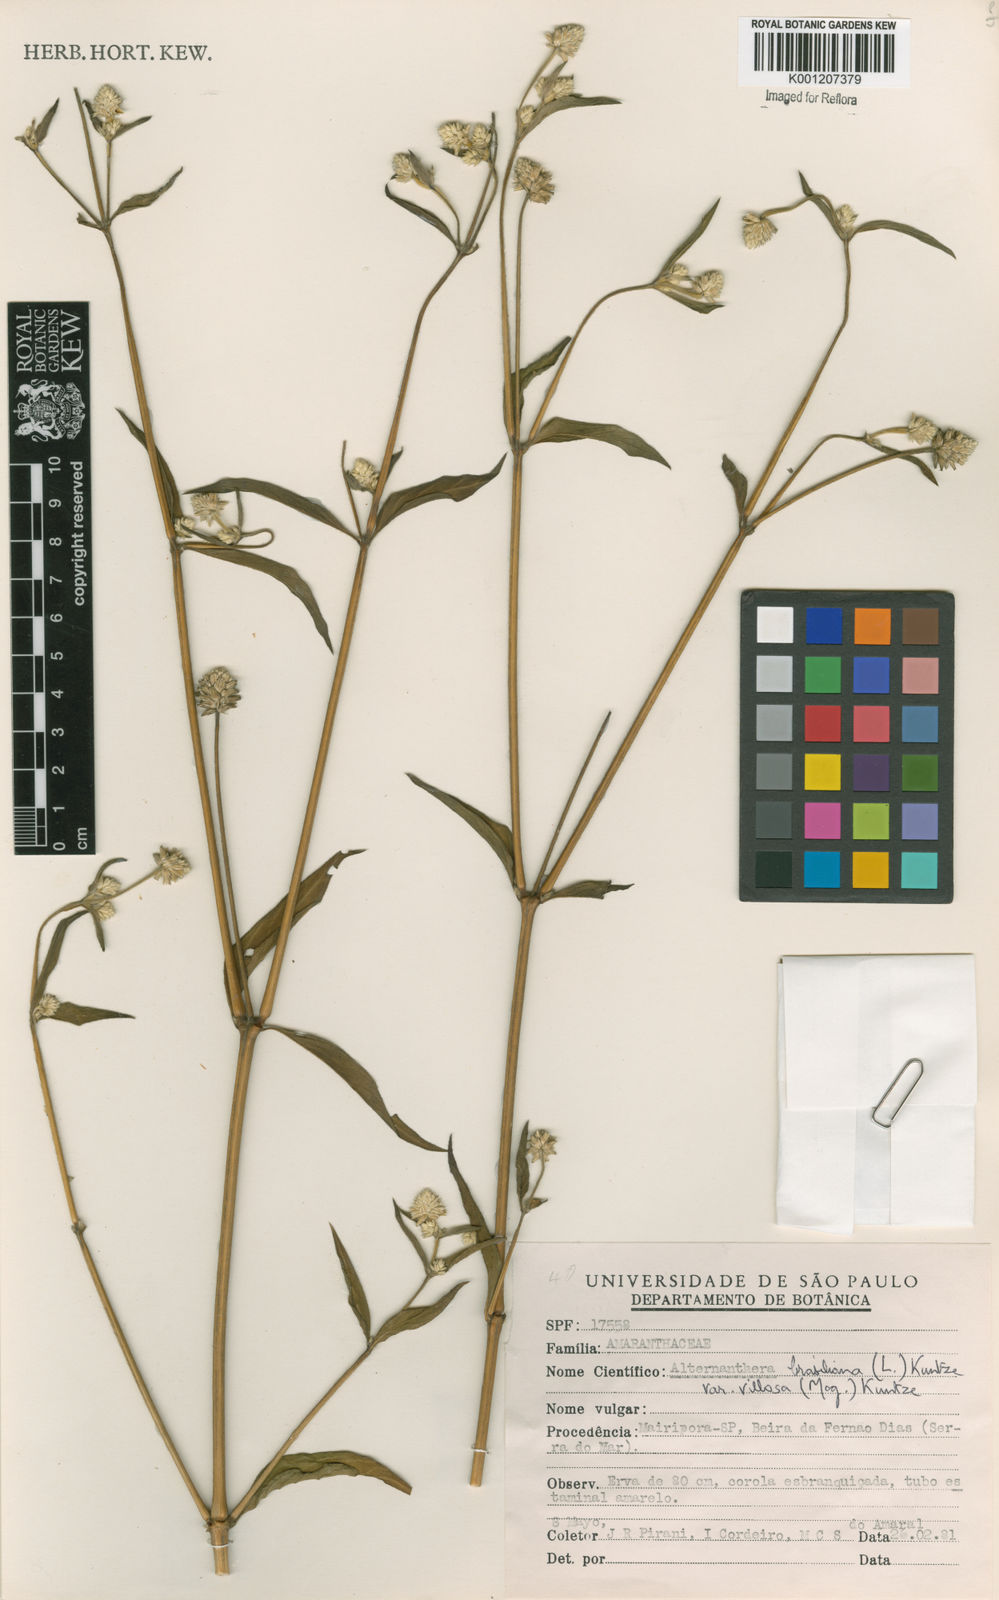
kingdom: Plantae
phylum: Tracheophyta
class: Magnoliopsida
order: Caryophyllales
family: Amaranthaceae
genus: Alternanthera
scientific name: Alternanthera ramosissima
